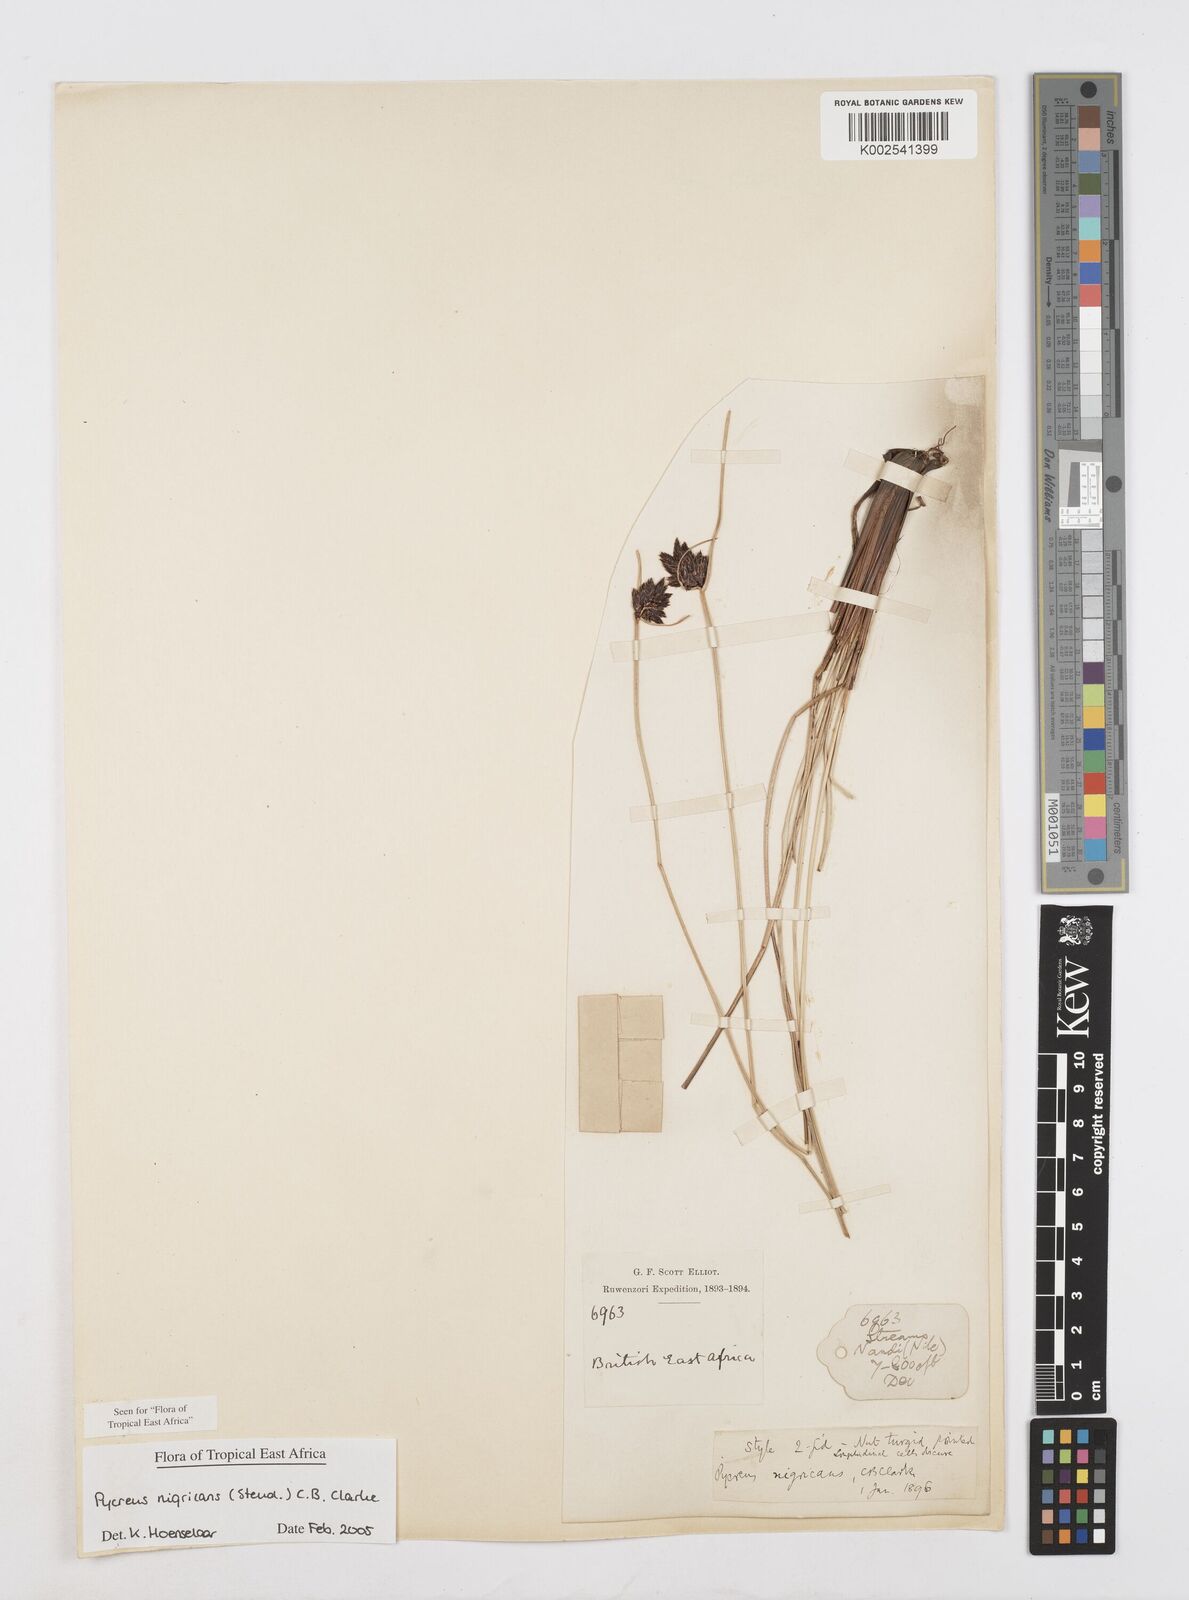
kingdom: Plantae
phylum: Tracheophyta
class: Liliopsida
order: Poales
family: Cyperaceae
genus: Cyperus
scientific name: Cyperus nigricans
